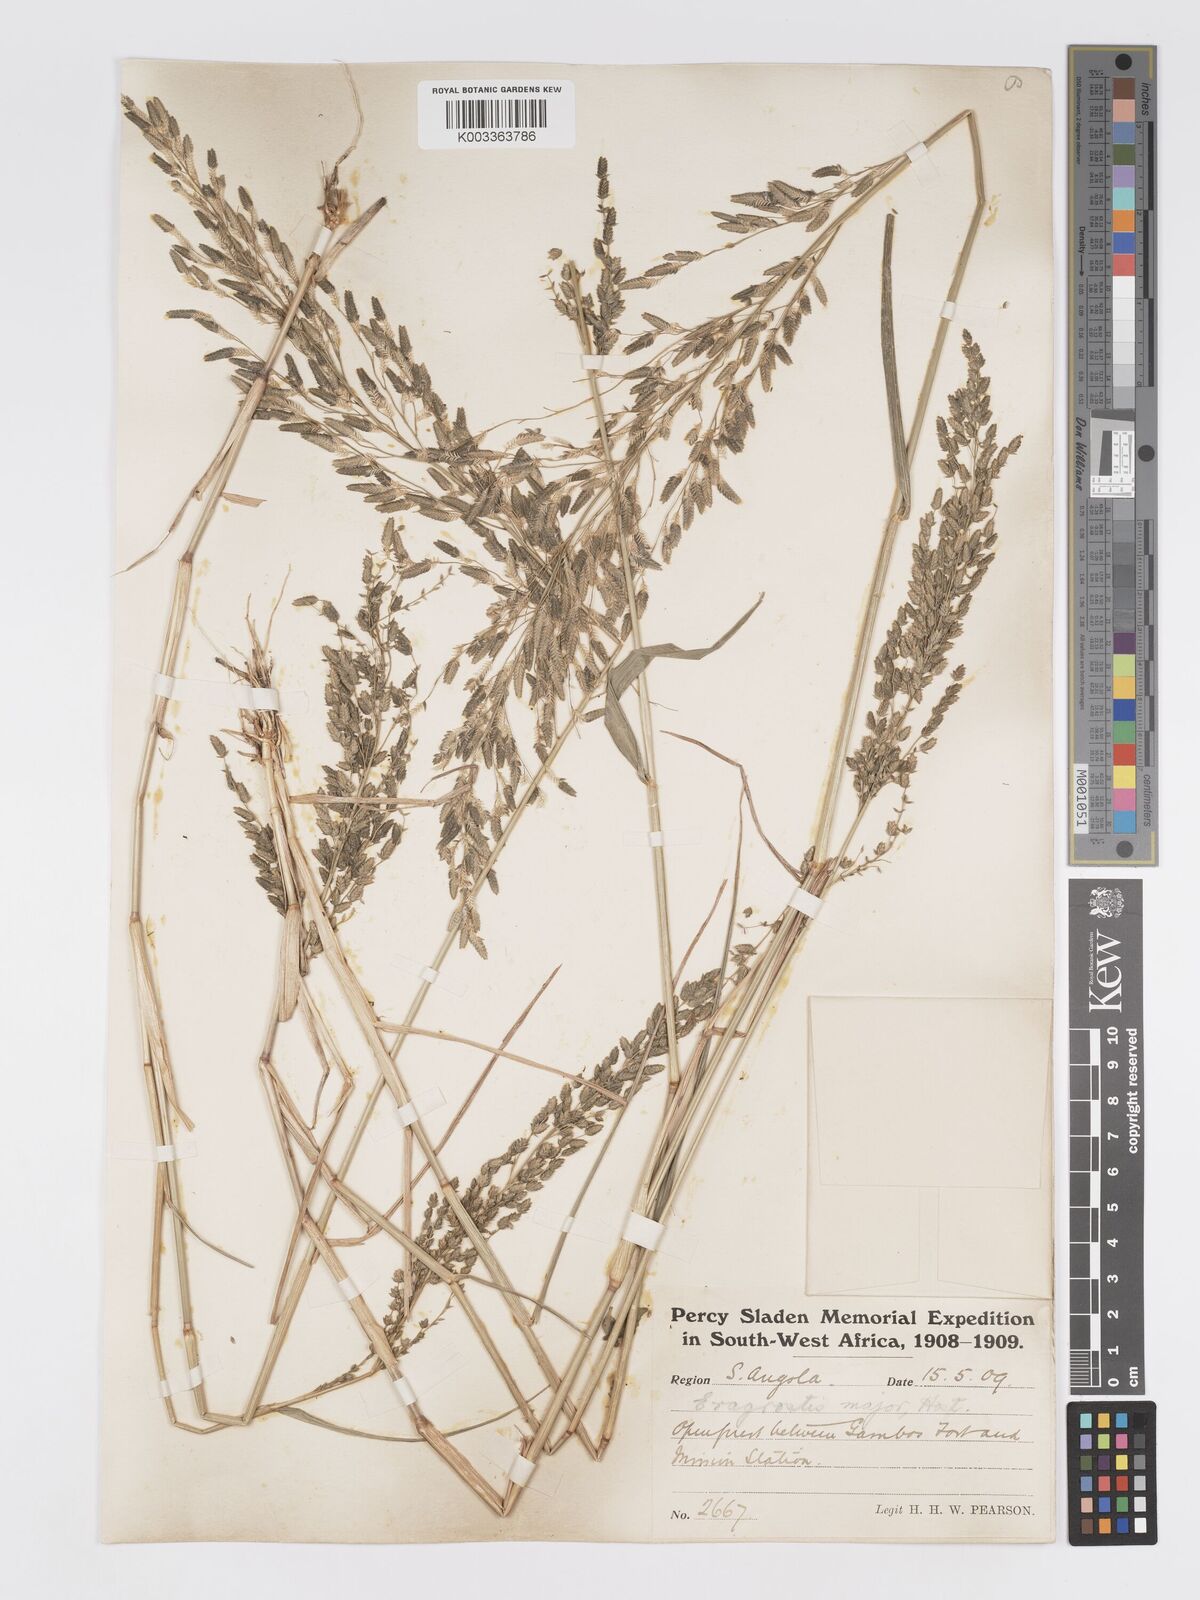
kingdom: Plantae
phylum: Tracheophyta
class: Liliopsida
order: Poales
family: Poaceae
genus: Eragrostis
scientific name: Eragrostis cilianensis
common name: Stinkgrass
